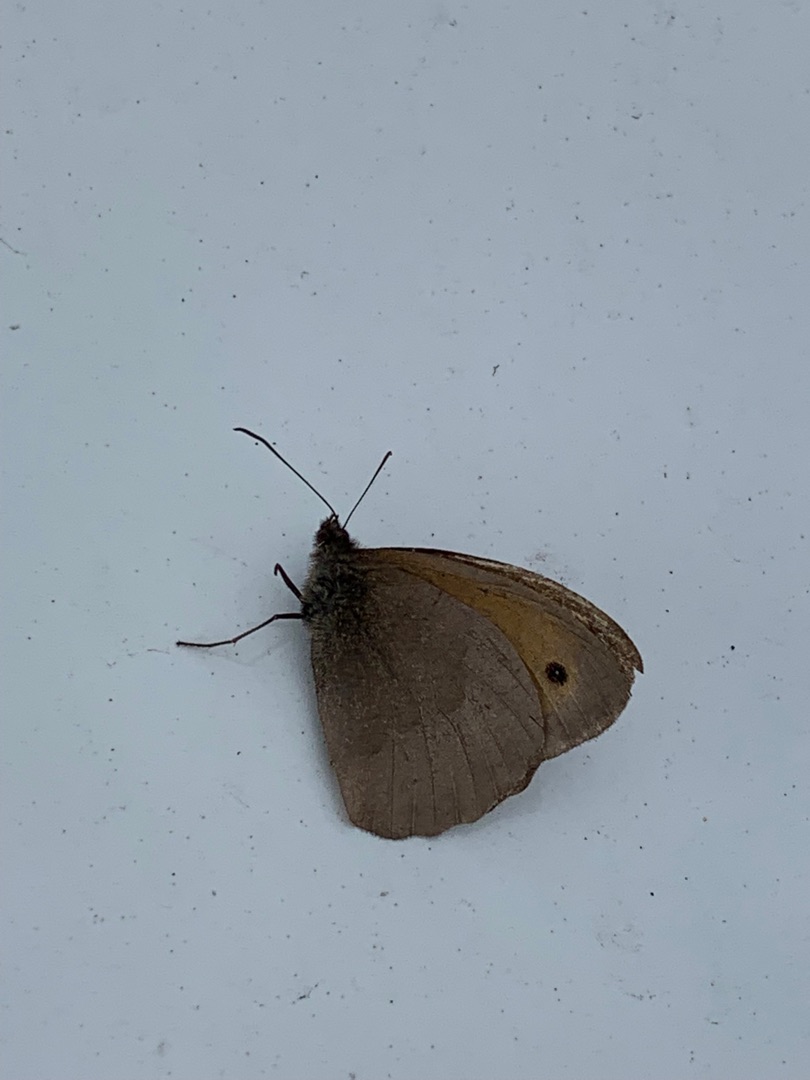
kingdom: Animalia
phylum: Arthropoda
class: Insecta
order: Lepidoptera
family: Nymphalidae
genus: Maniola
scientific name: Maniola jurtina
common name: Græsrandøje
